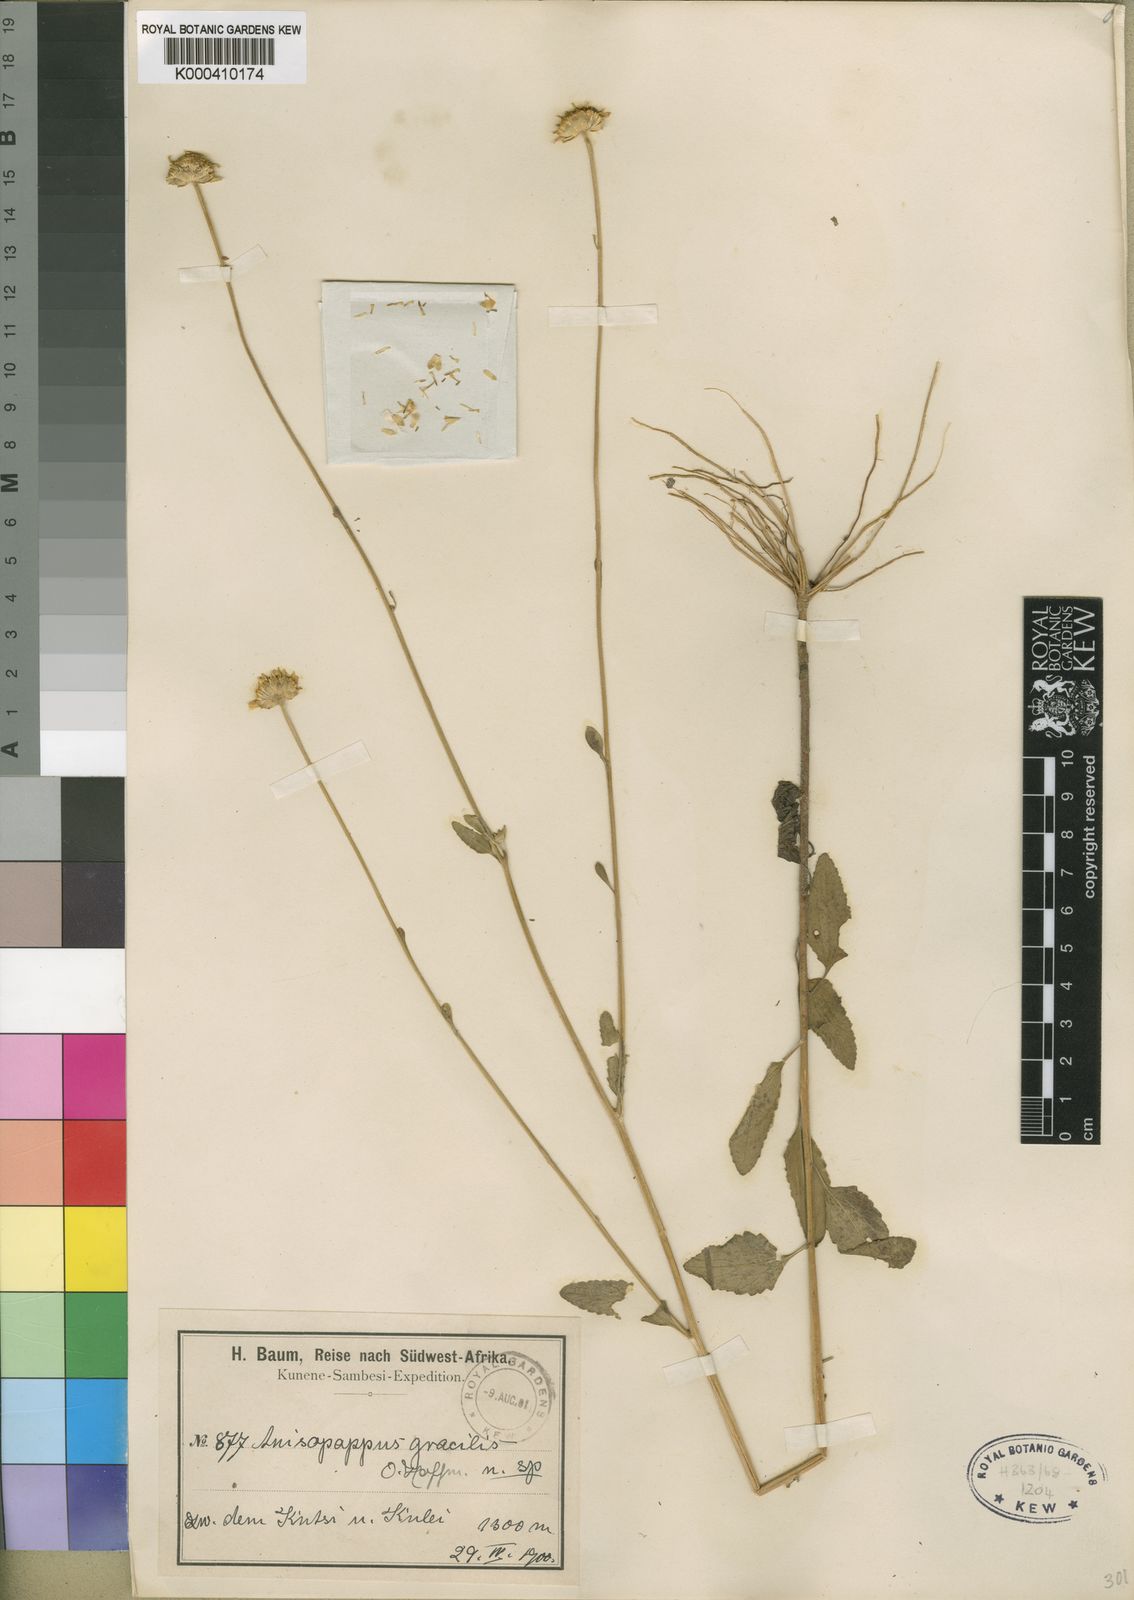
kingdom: Plantae
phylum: Tracheophyta
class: Magnoliopsida
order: Asterales
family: Asteraceae
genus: Anisopappus
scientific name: Anisopappus africanus
